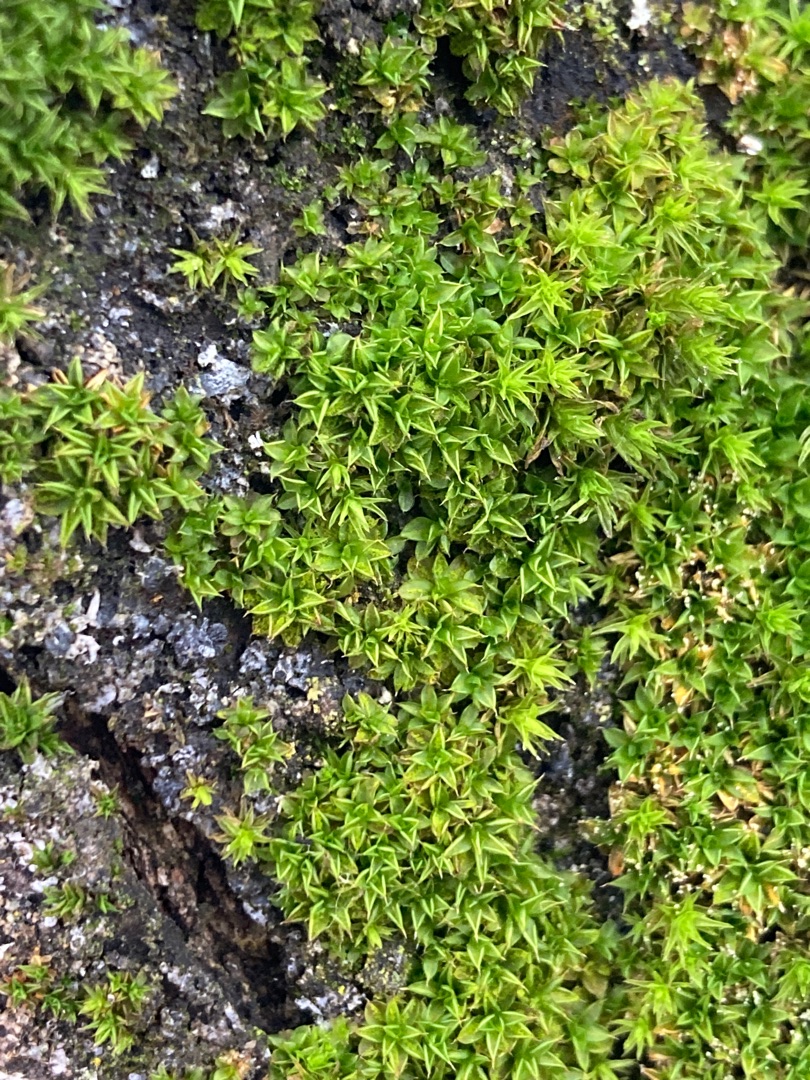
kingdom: Plantae
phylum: Bryophyta
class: Bryopsida
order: Pottiales
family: Pottiaceae
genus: Syntrichia
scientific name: Syntrichia papillosa
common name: Bark-hårstjerne
